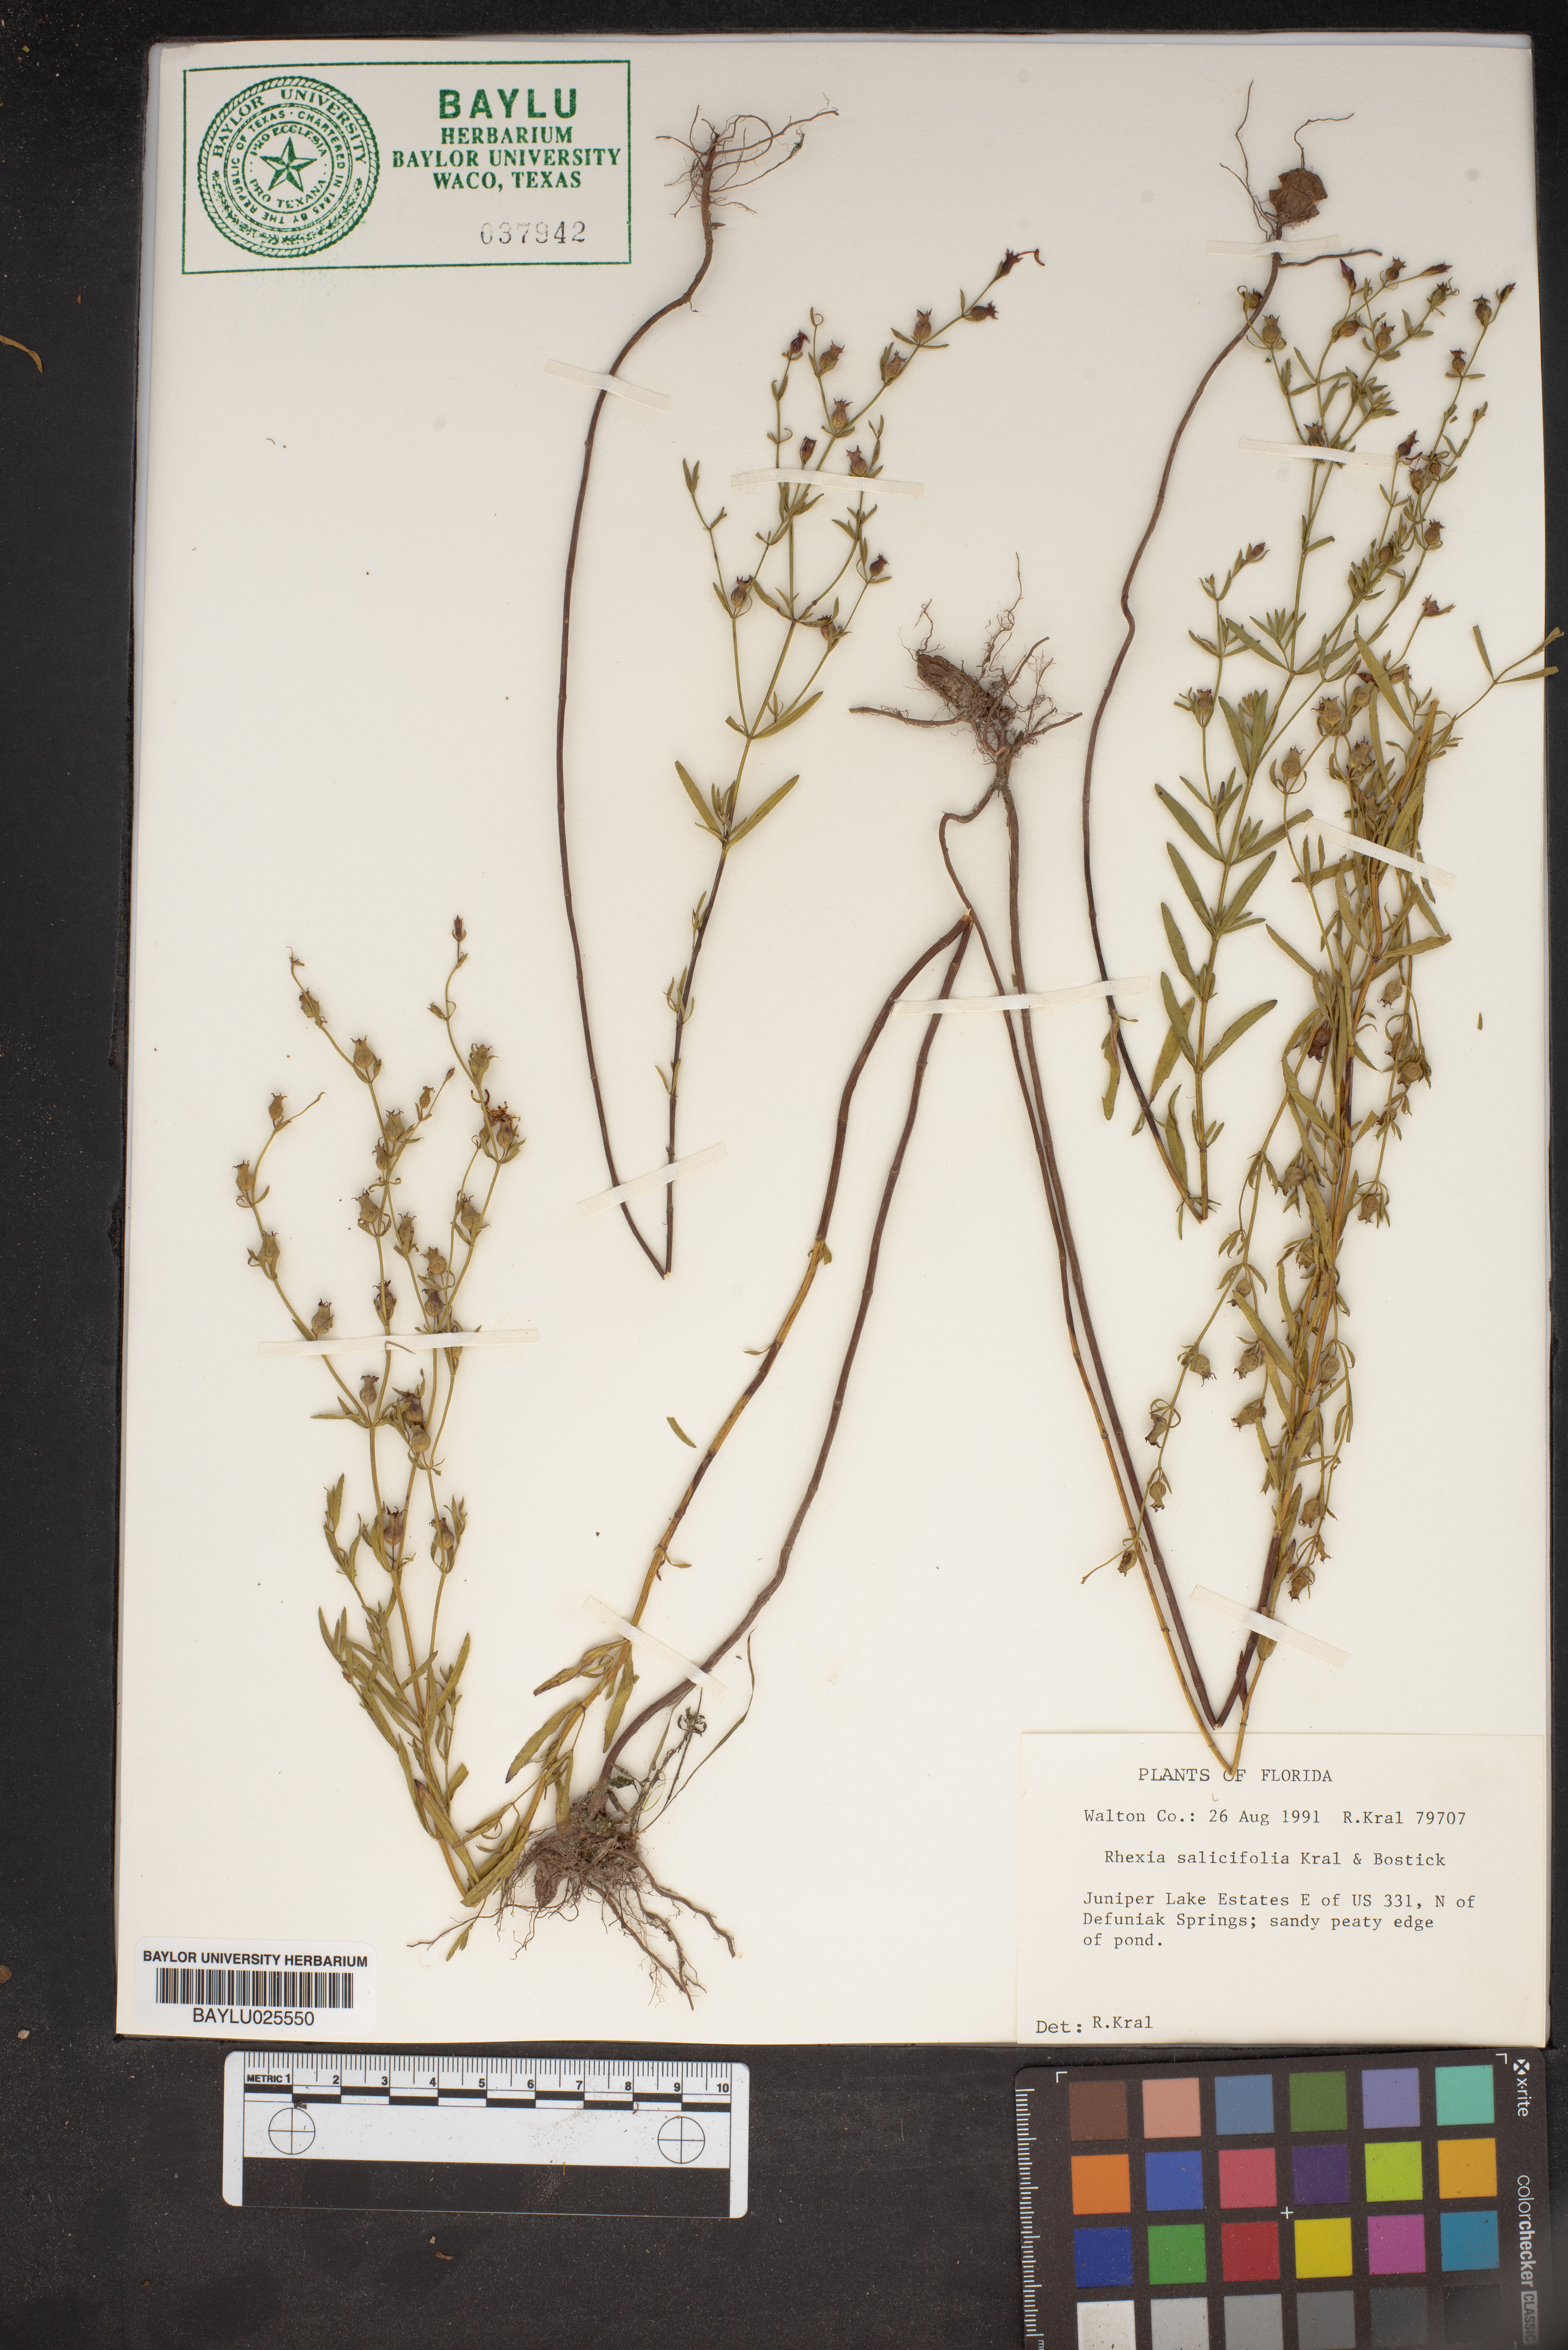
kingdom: Plantae
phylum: Tracheophyta
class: Magnoliopsida
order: Myrtales
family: Melastomataceae
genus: Rhexia
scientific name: Rhexia salicifolia
